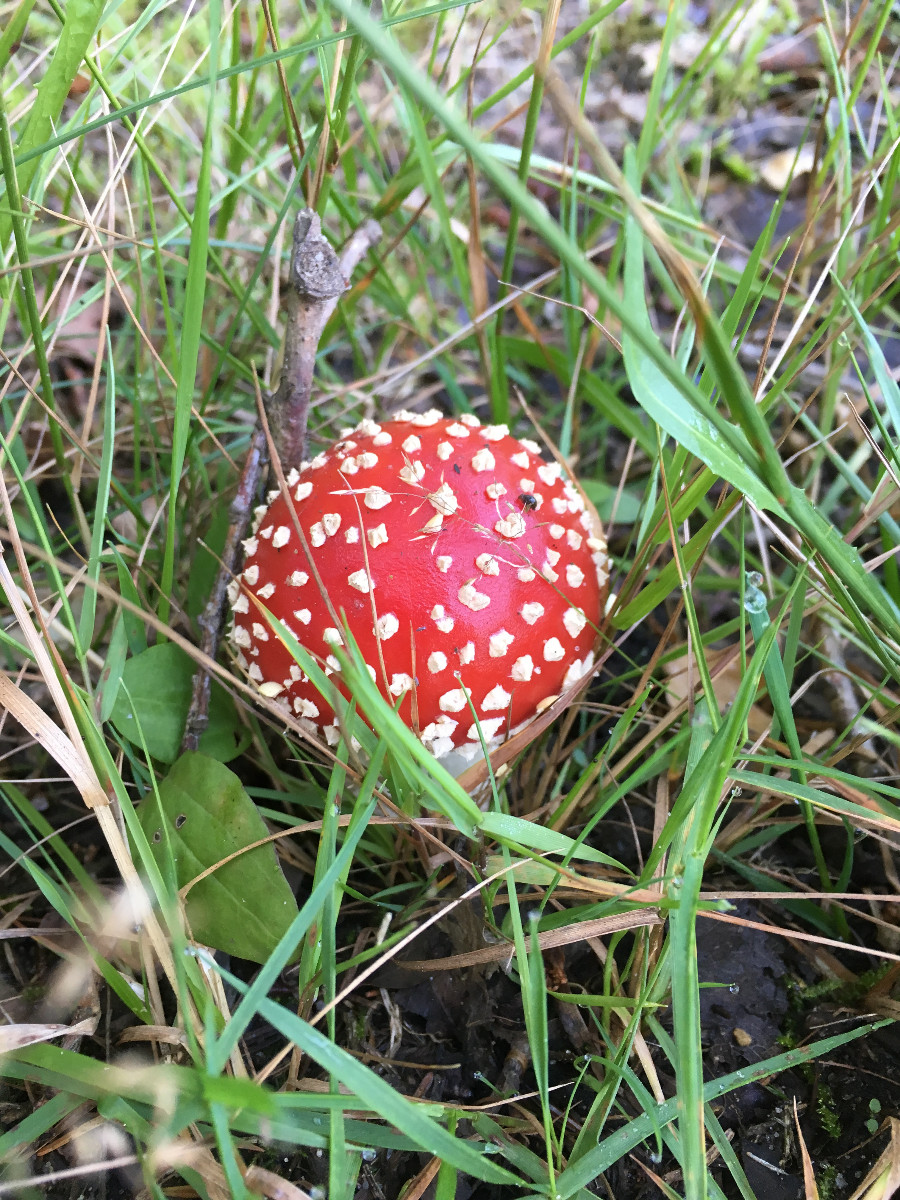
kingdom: Fungi
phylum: Basidiomycota
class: Agaricomycetes
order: Agaricales
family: Amanitaceae
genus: Amanita
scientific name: Amanita muscaria
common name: rød fluesvamp
